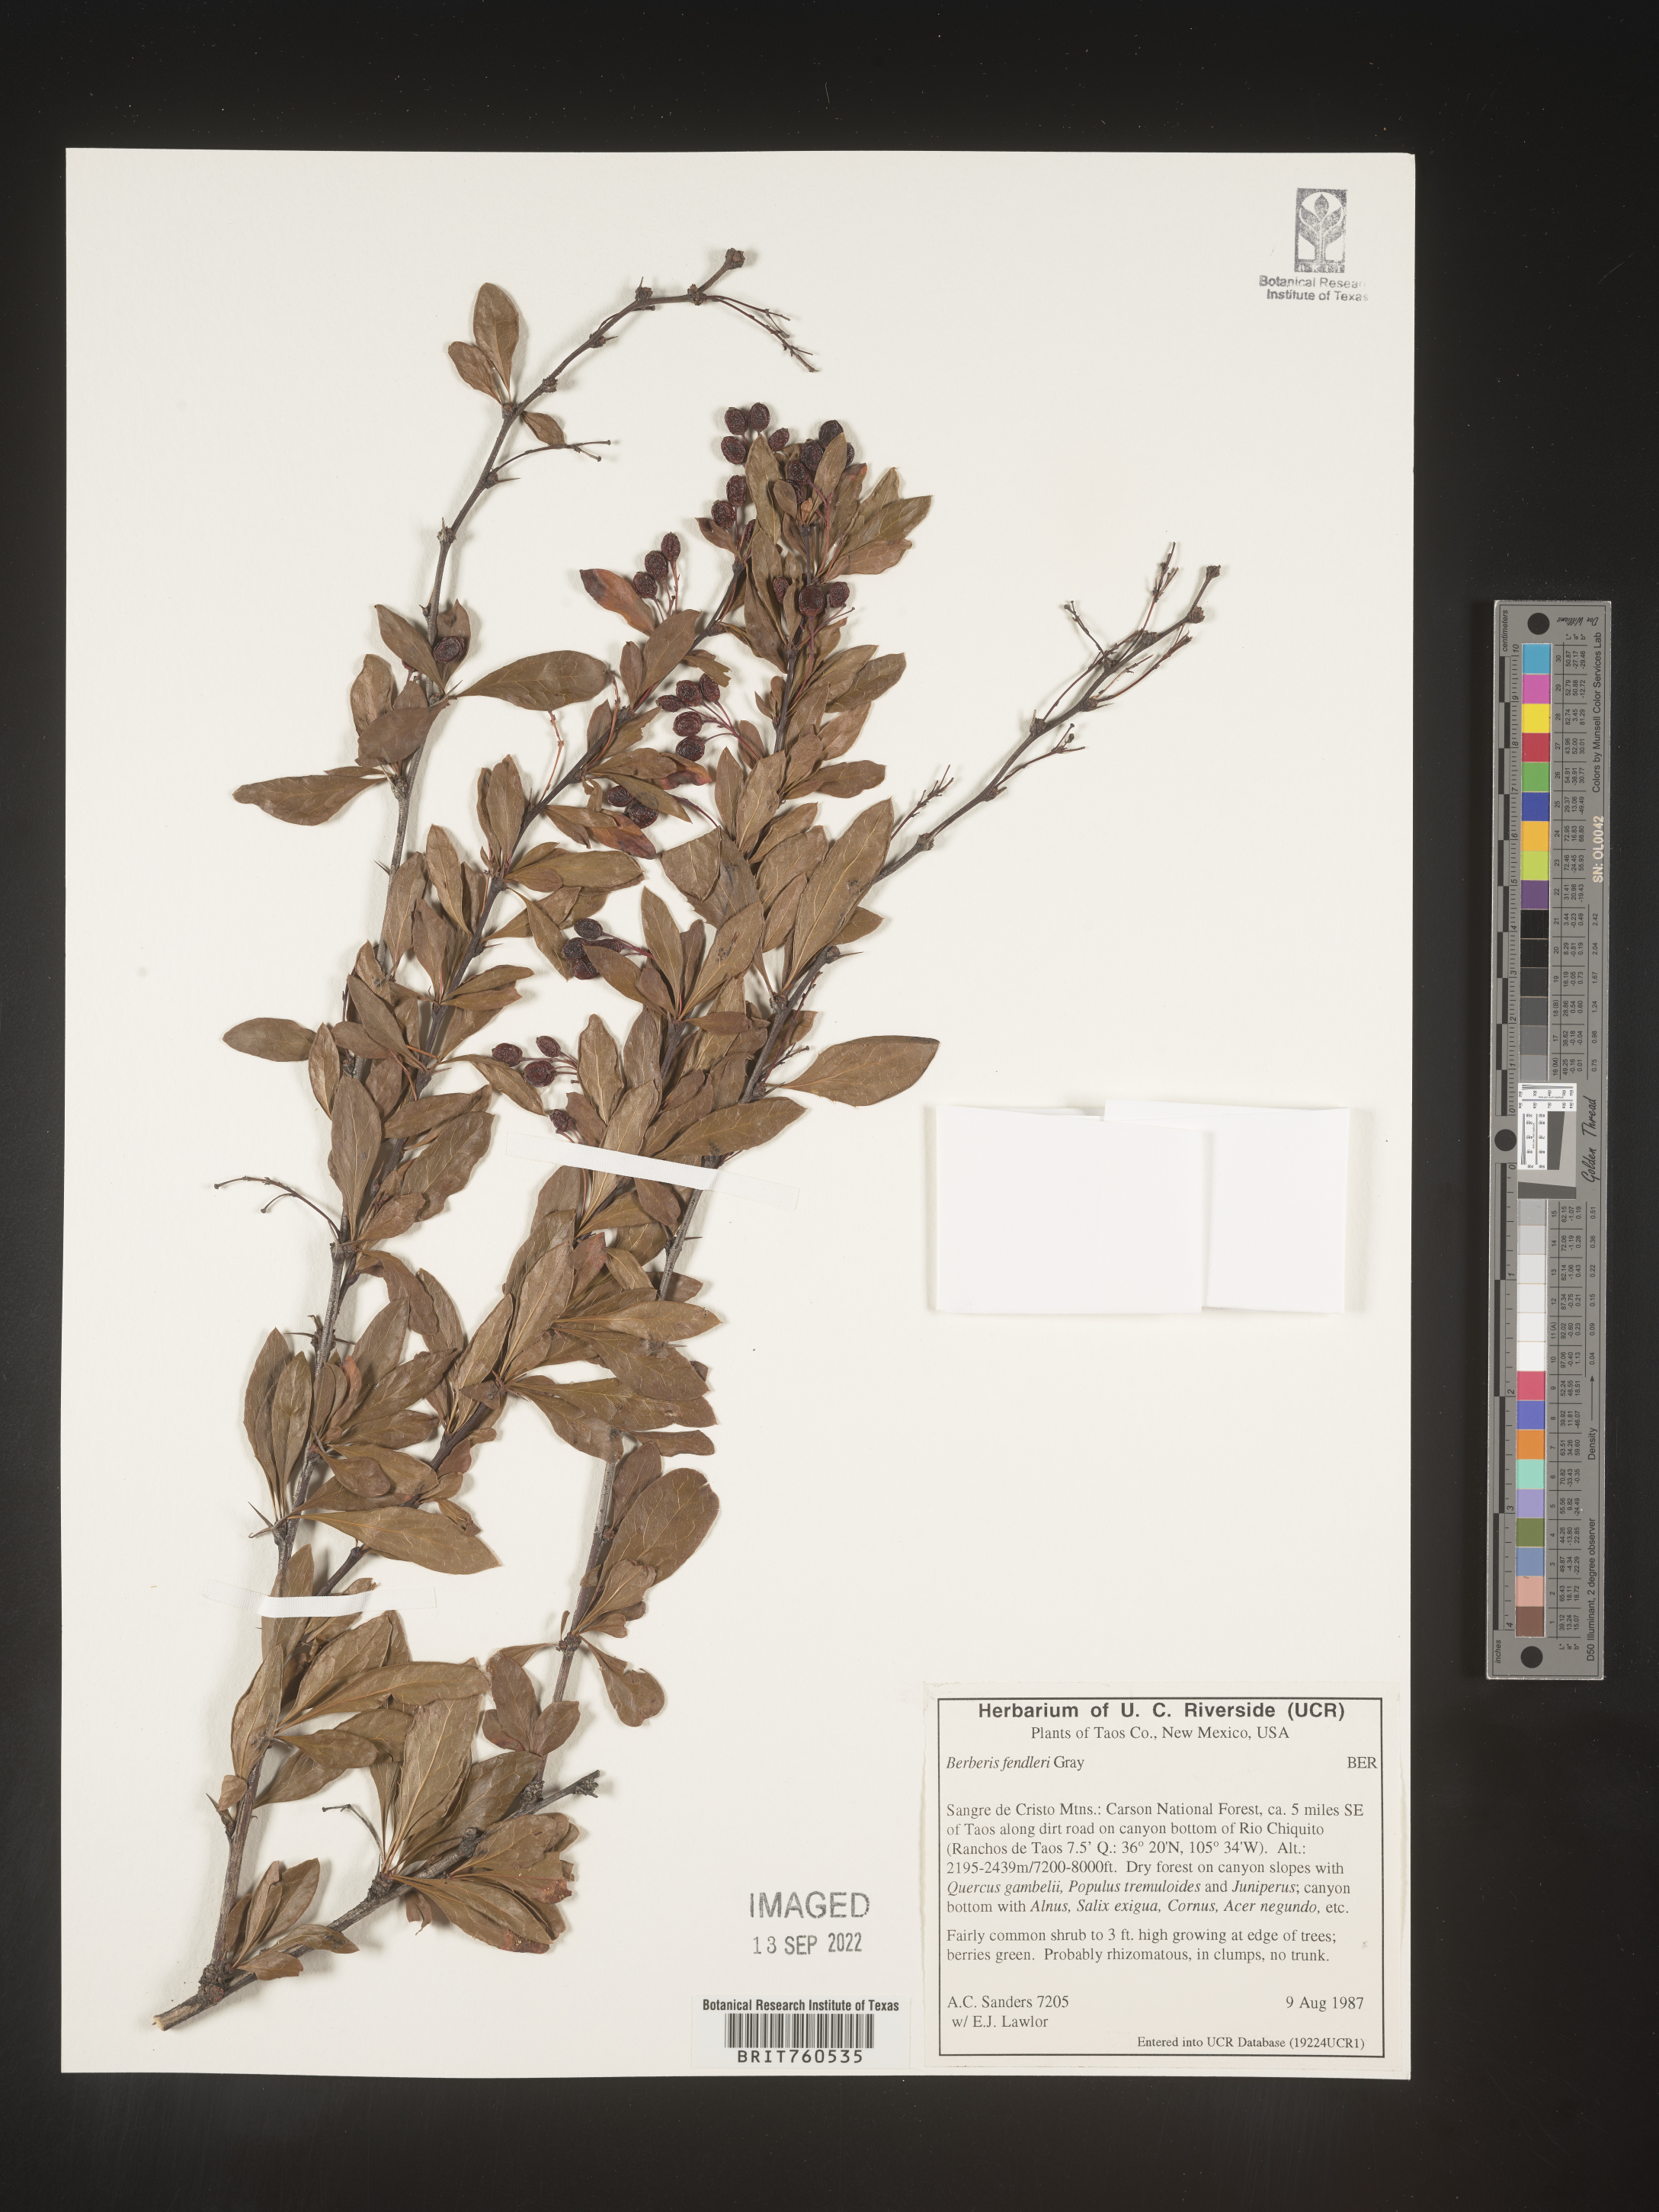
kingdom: Plantae
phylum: Tracheophyta
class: Magnoliopsida
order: Ranunculales
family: Berberidaceae
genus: Berberis
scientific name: Berberis
